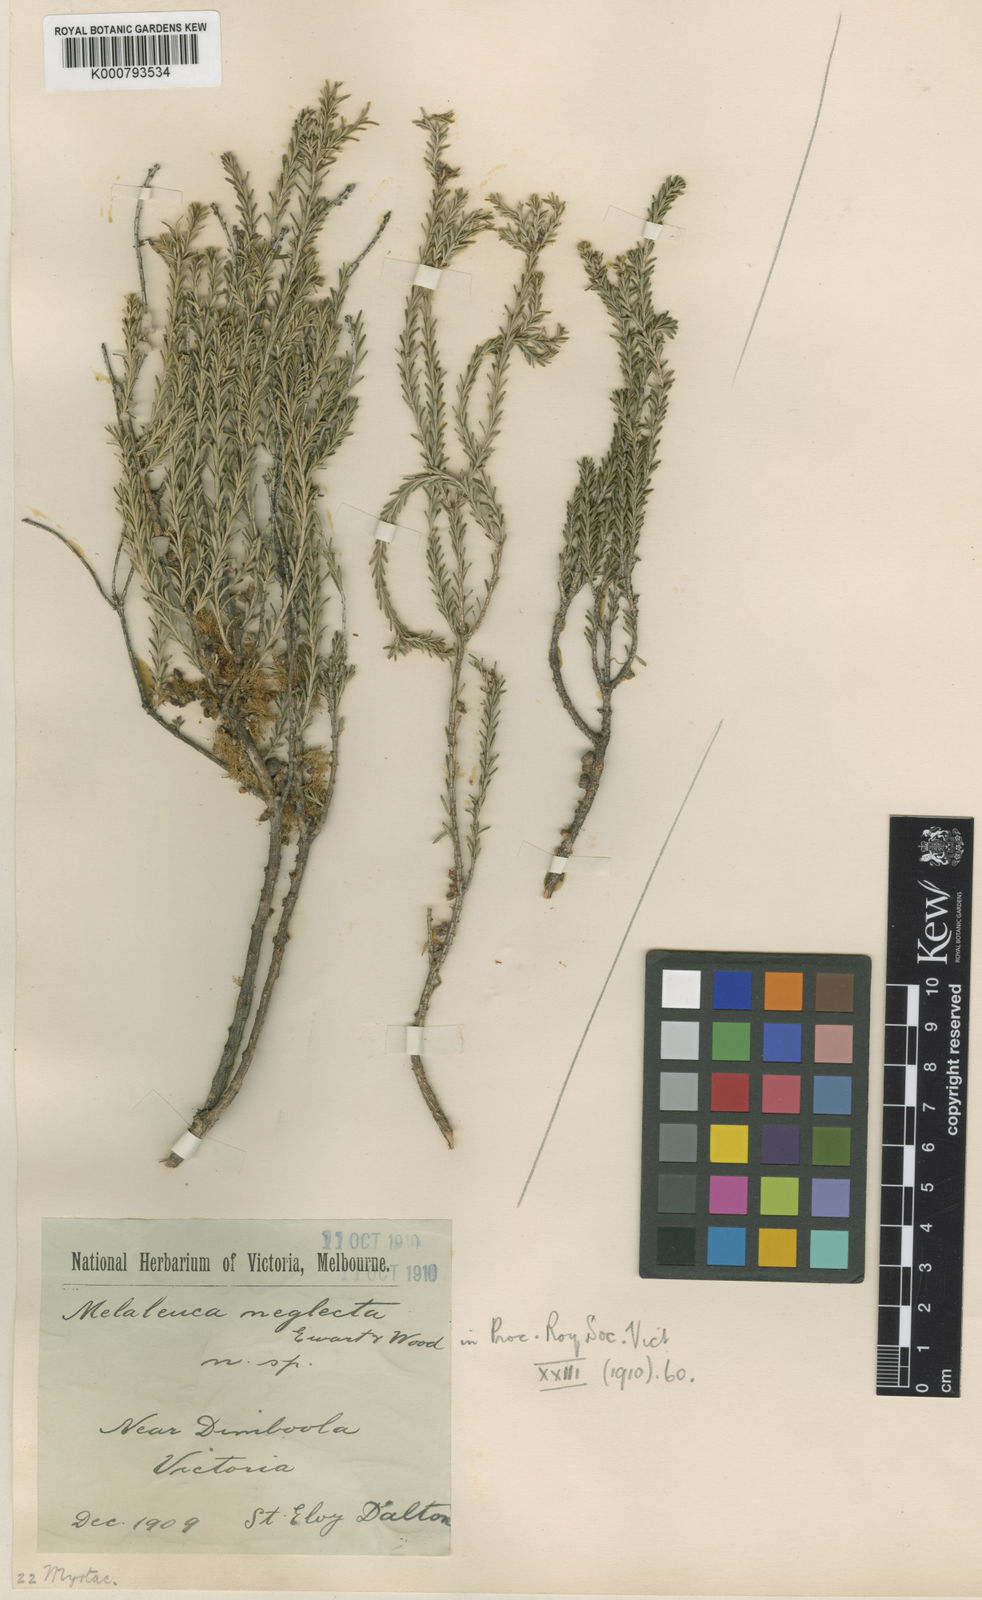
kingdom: Plantae
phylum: Tracheophyta
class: Magnoliopsida
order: Myrtales
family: Myrtaceae
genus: Melaleuca
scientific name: Melaleuca brevifolia
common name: Mallee honey myrtle
